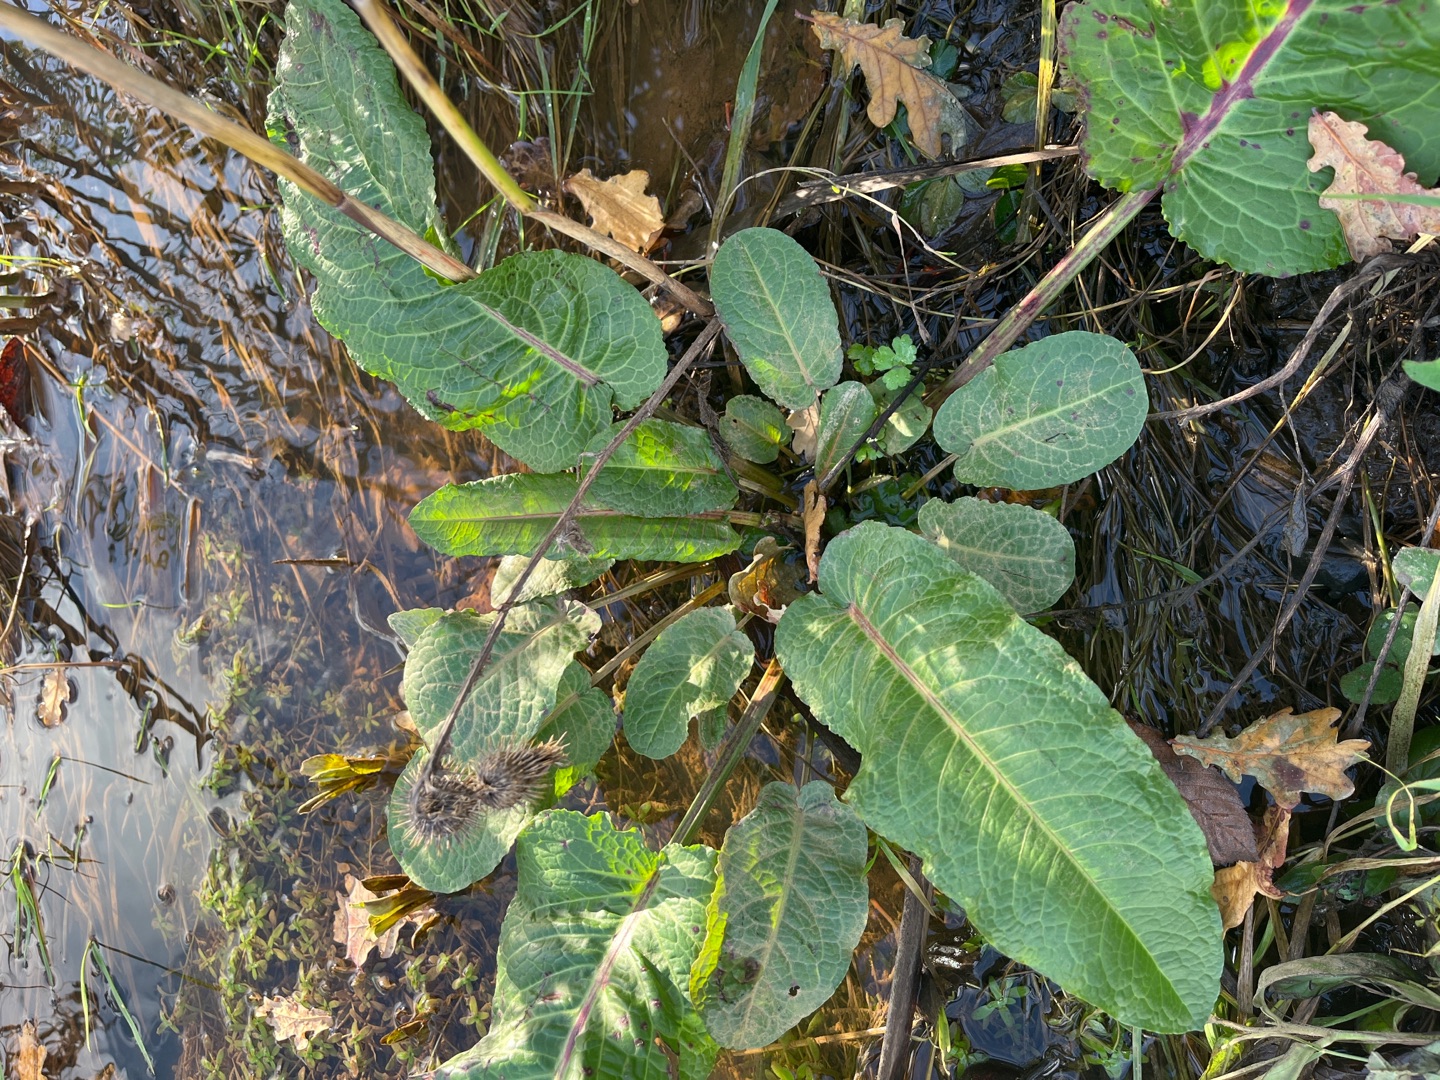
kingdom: Plantae
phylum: Tracheophyta
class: Magnoliopsida
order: Caryophyllales
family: Polygonaceae
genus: Rumex
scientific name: Rumex obtusifolius
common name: Butbladet skræppe
